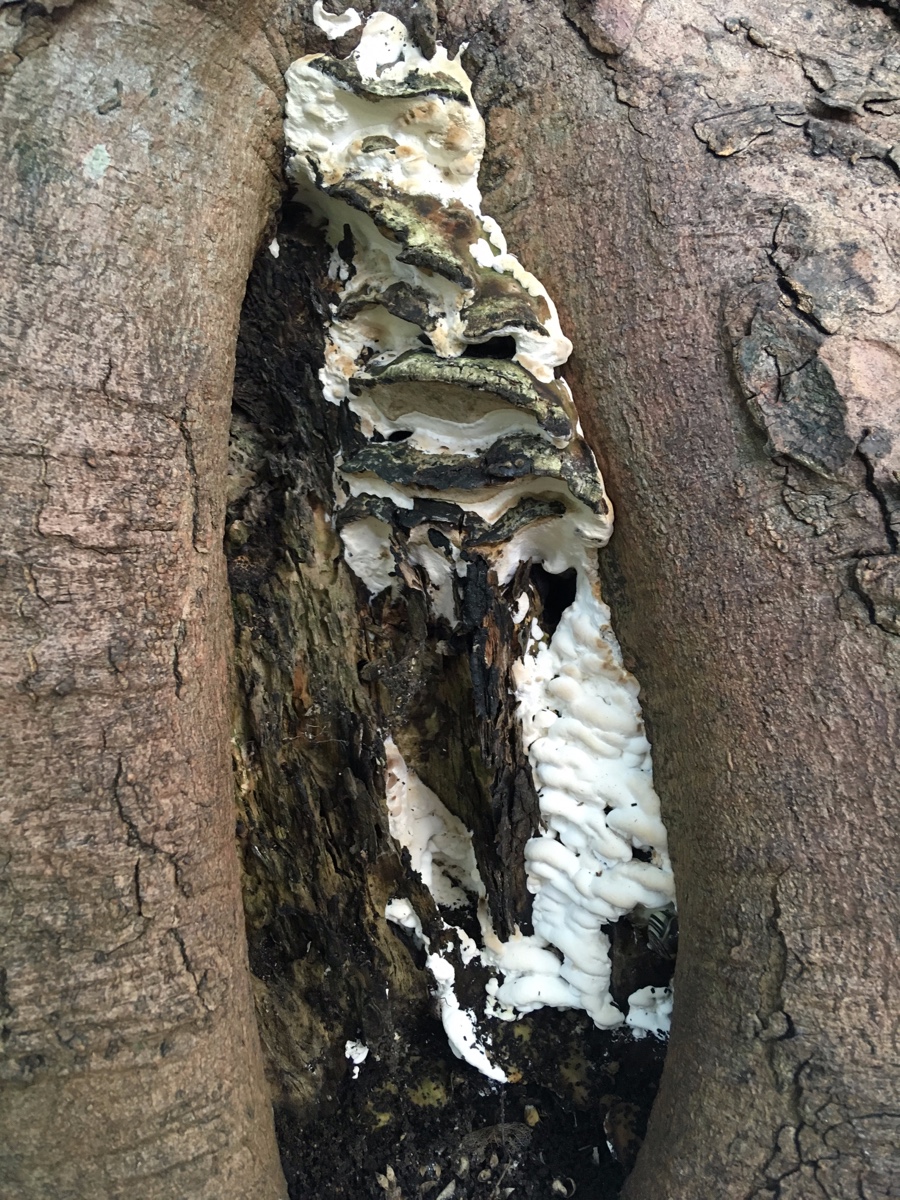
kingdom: Fungi
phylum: Basidiomycota
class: Agaricomycetes
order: Hymenochaetales
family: Oxyporaceae
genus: Oxyporus
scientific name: Oxyporus populinus
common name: sammenvokset trylleporesvamp
